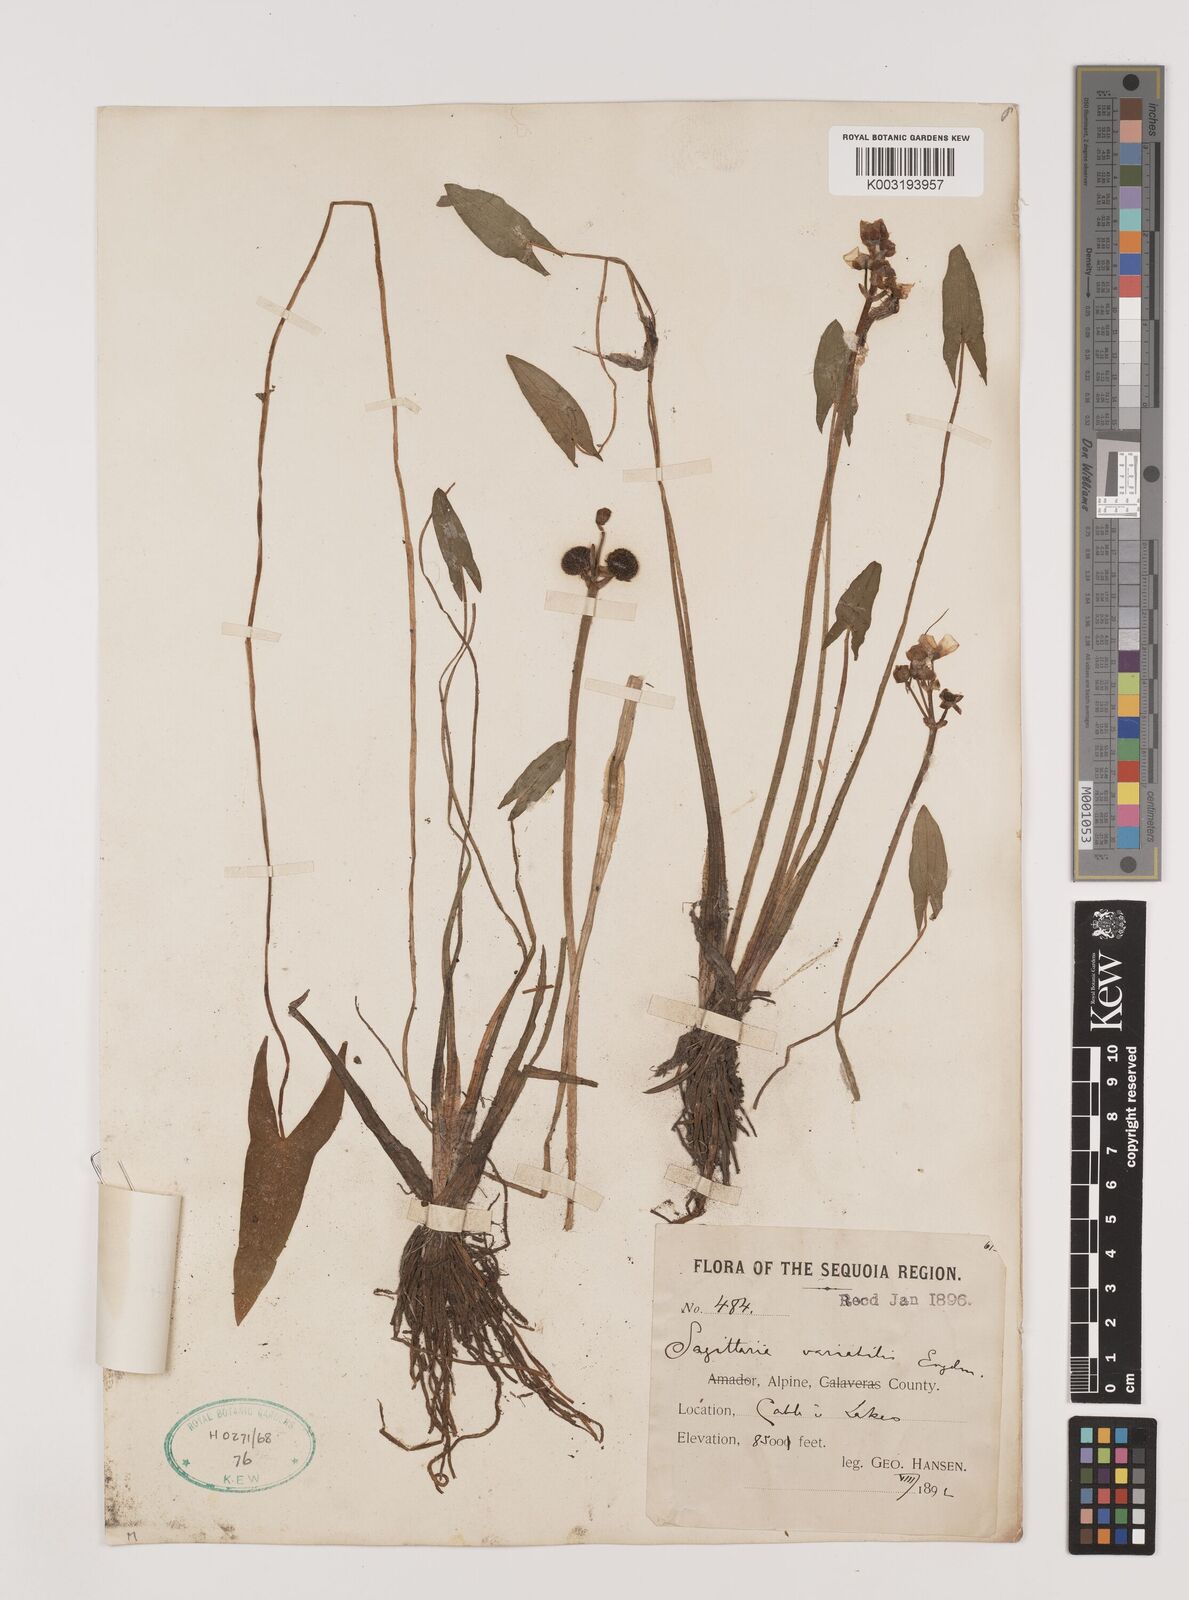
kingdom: Plantae
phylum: Tracheophyta
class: Liliopsida
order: Alismatales
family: Alismataceae
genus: Sagittaria
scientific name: Sagittaria cuneata
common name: Northern arrowhead
